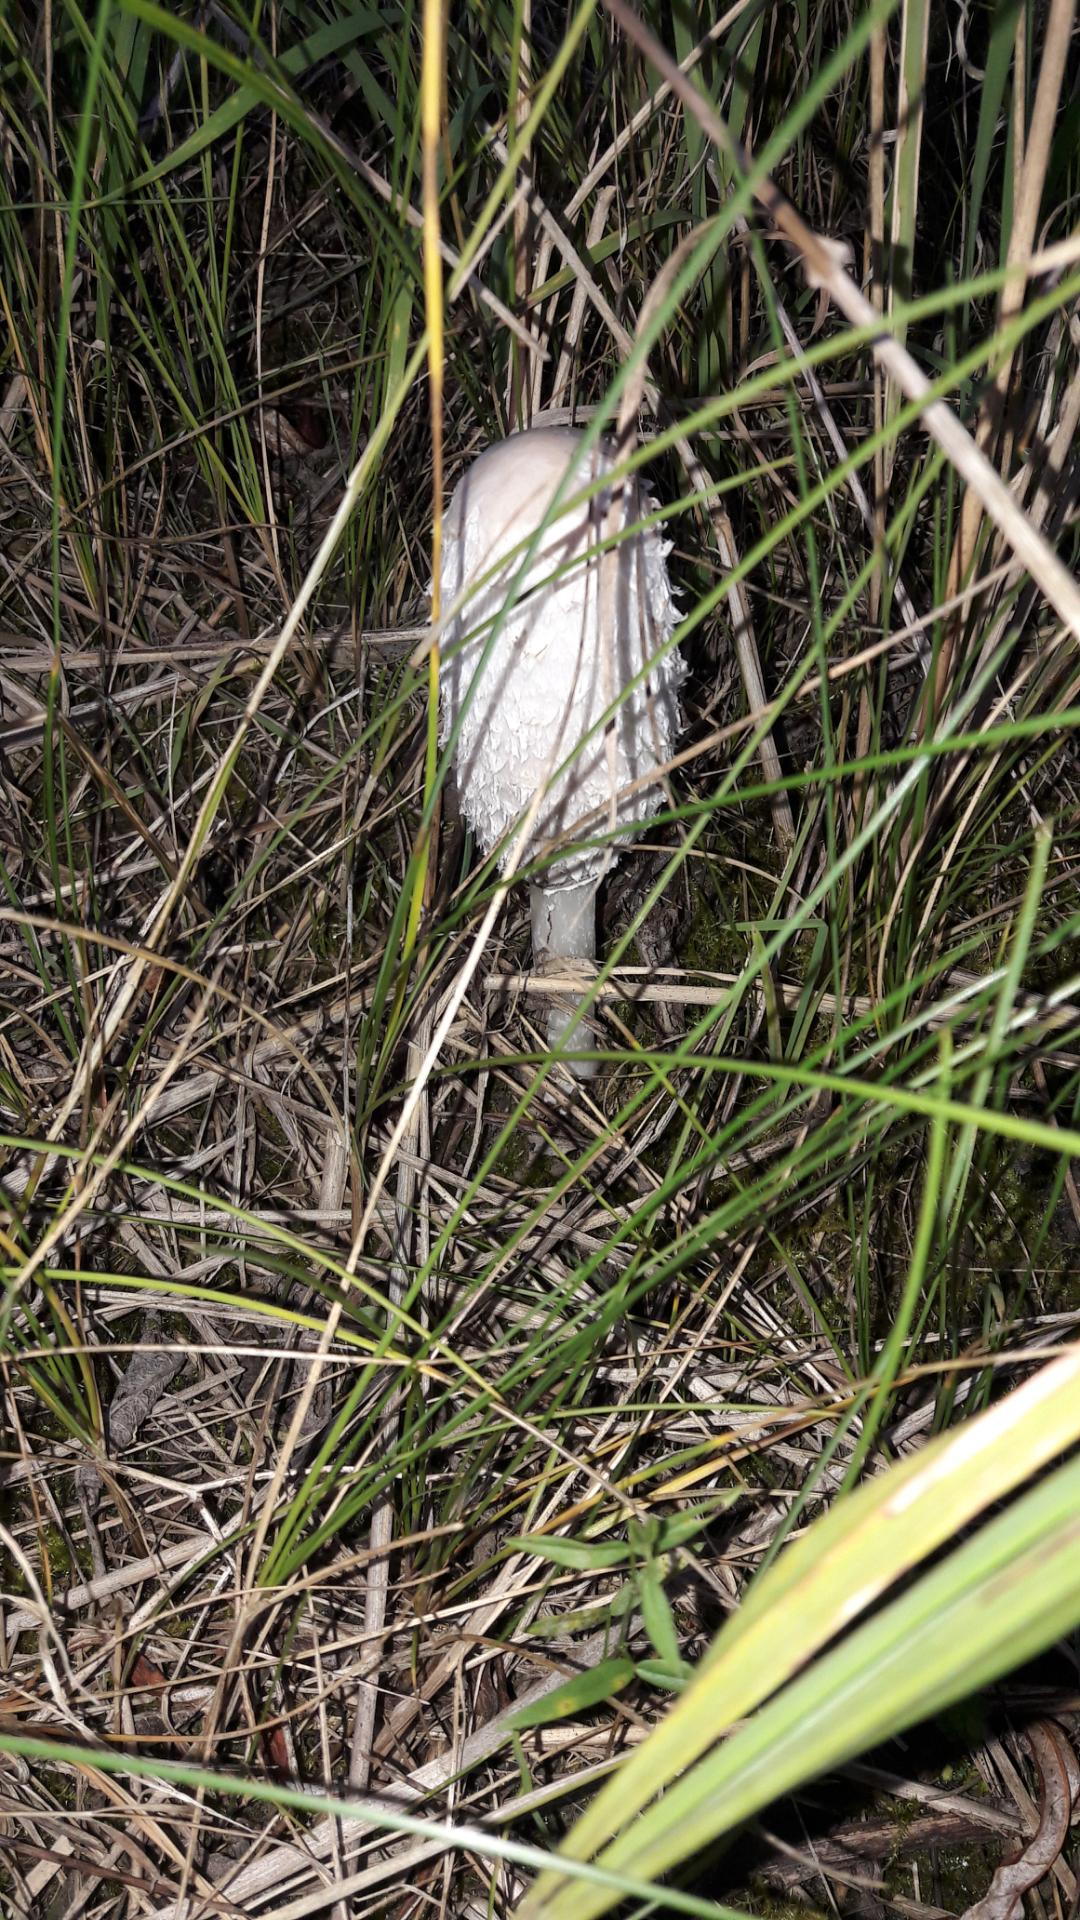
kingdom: Fungi
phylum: Basidiomycota
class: Agaricomycetes
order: Agaricales
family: Agaricaceae
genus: Coprinus
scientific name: Coprinus comatus
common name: stor parykhat
